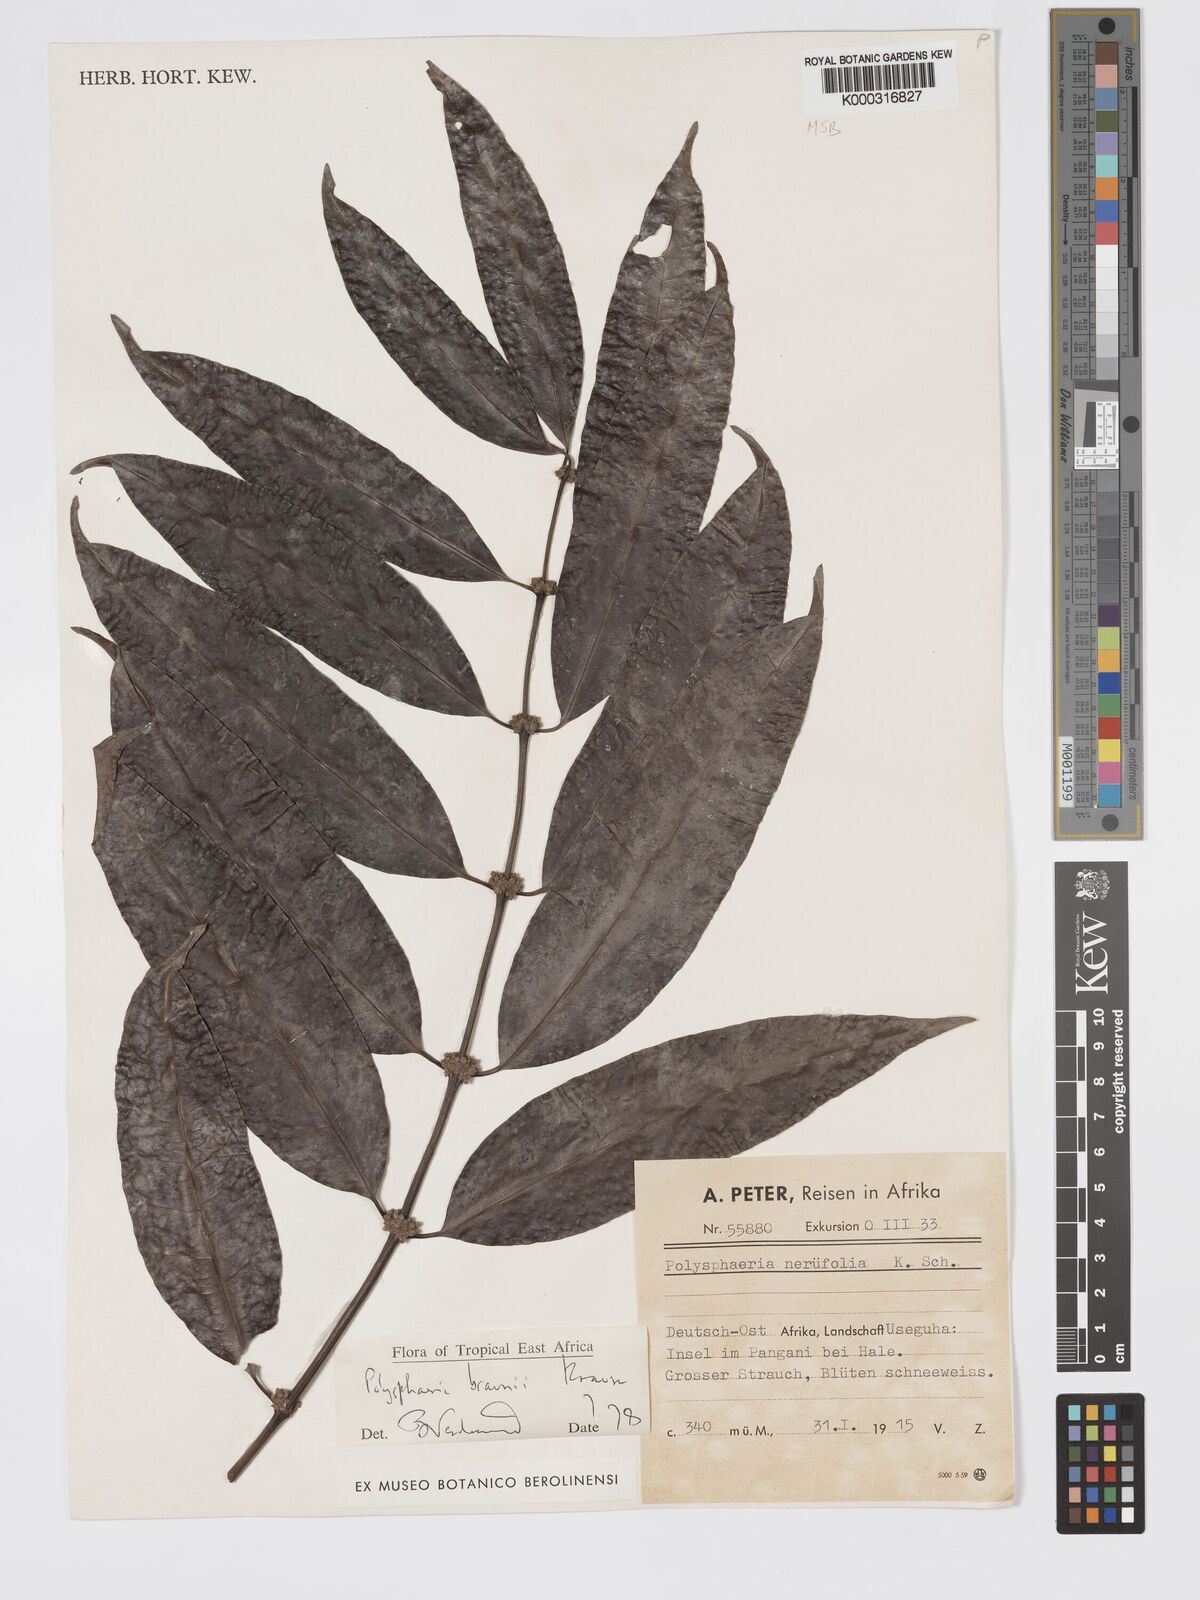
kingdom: Plantae
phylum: Tracheophyta
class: Magnoliopsida
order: Gentianales
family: Rubiaceae
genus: Polysphaeria
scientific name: Polysphaeria braunii
